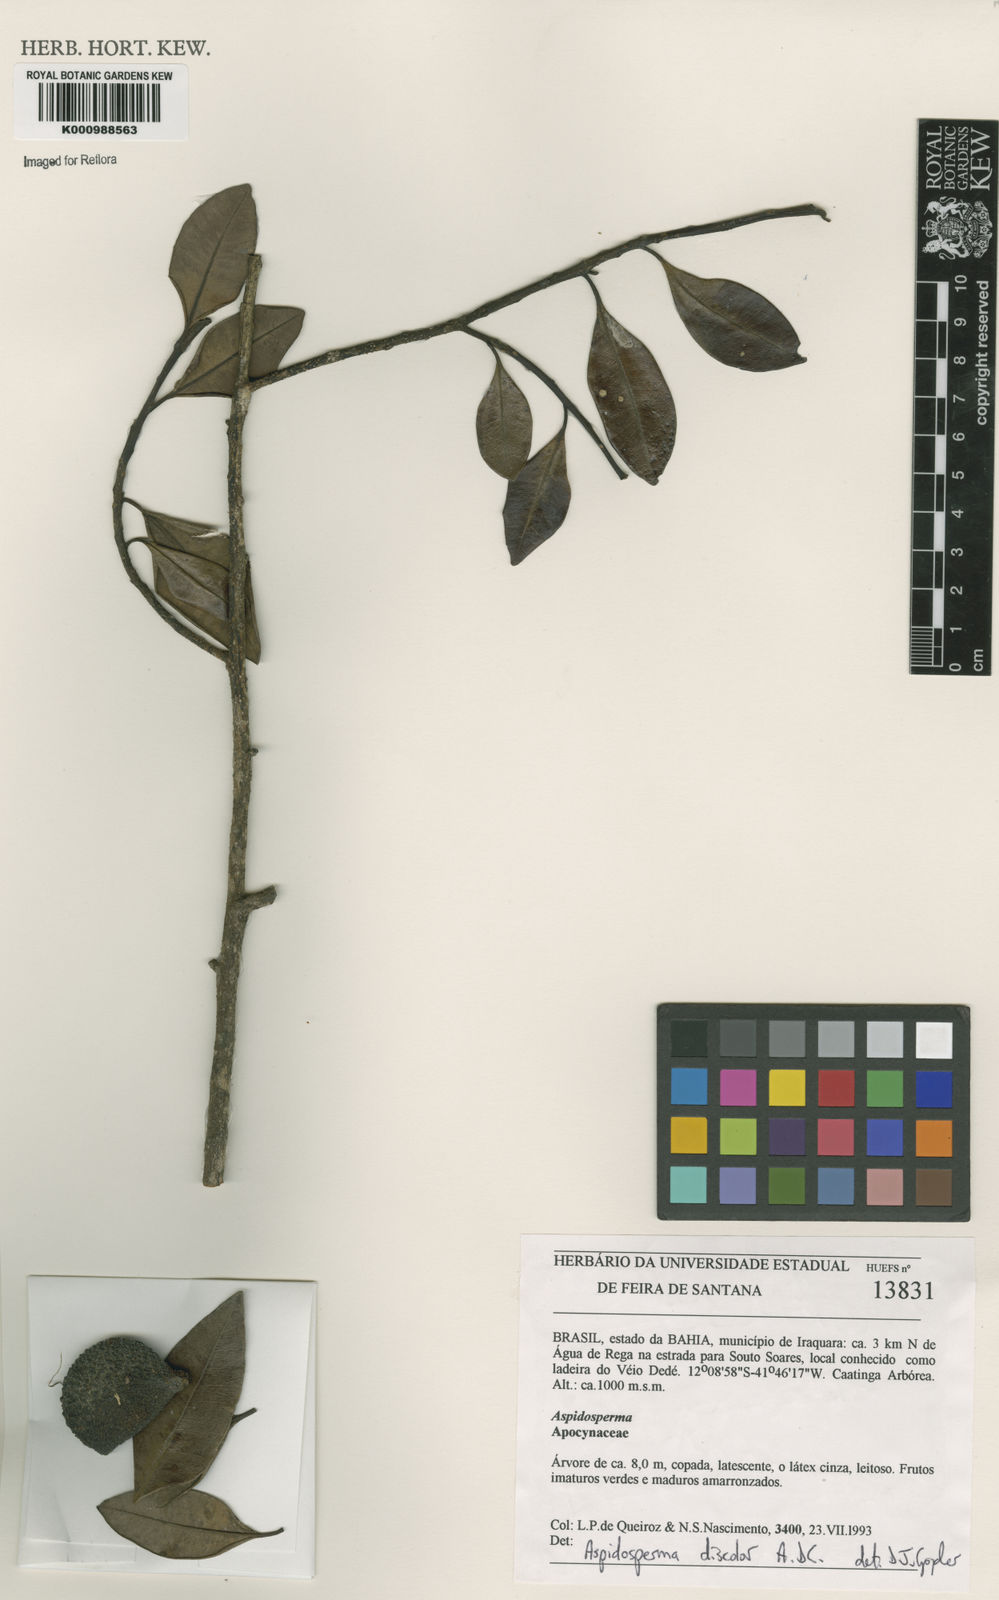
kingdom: Plantae
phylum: Tracheophyta
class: Magnoliopsida
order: Gentianales
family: Apocynaceae
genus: Aspidosperma
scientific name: Aspidosperma discolor
